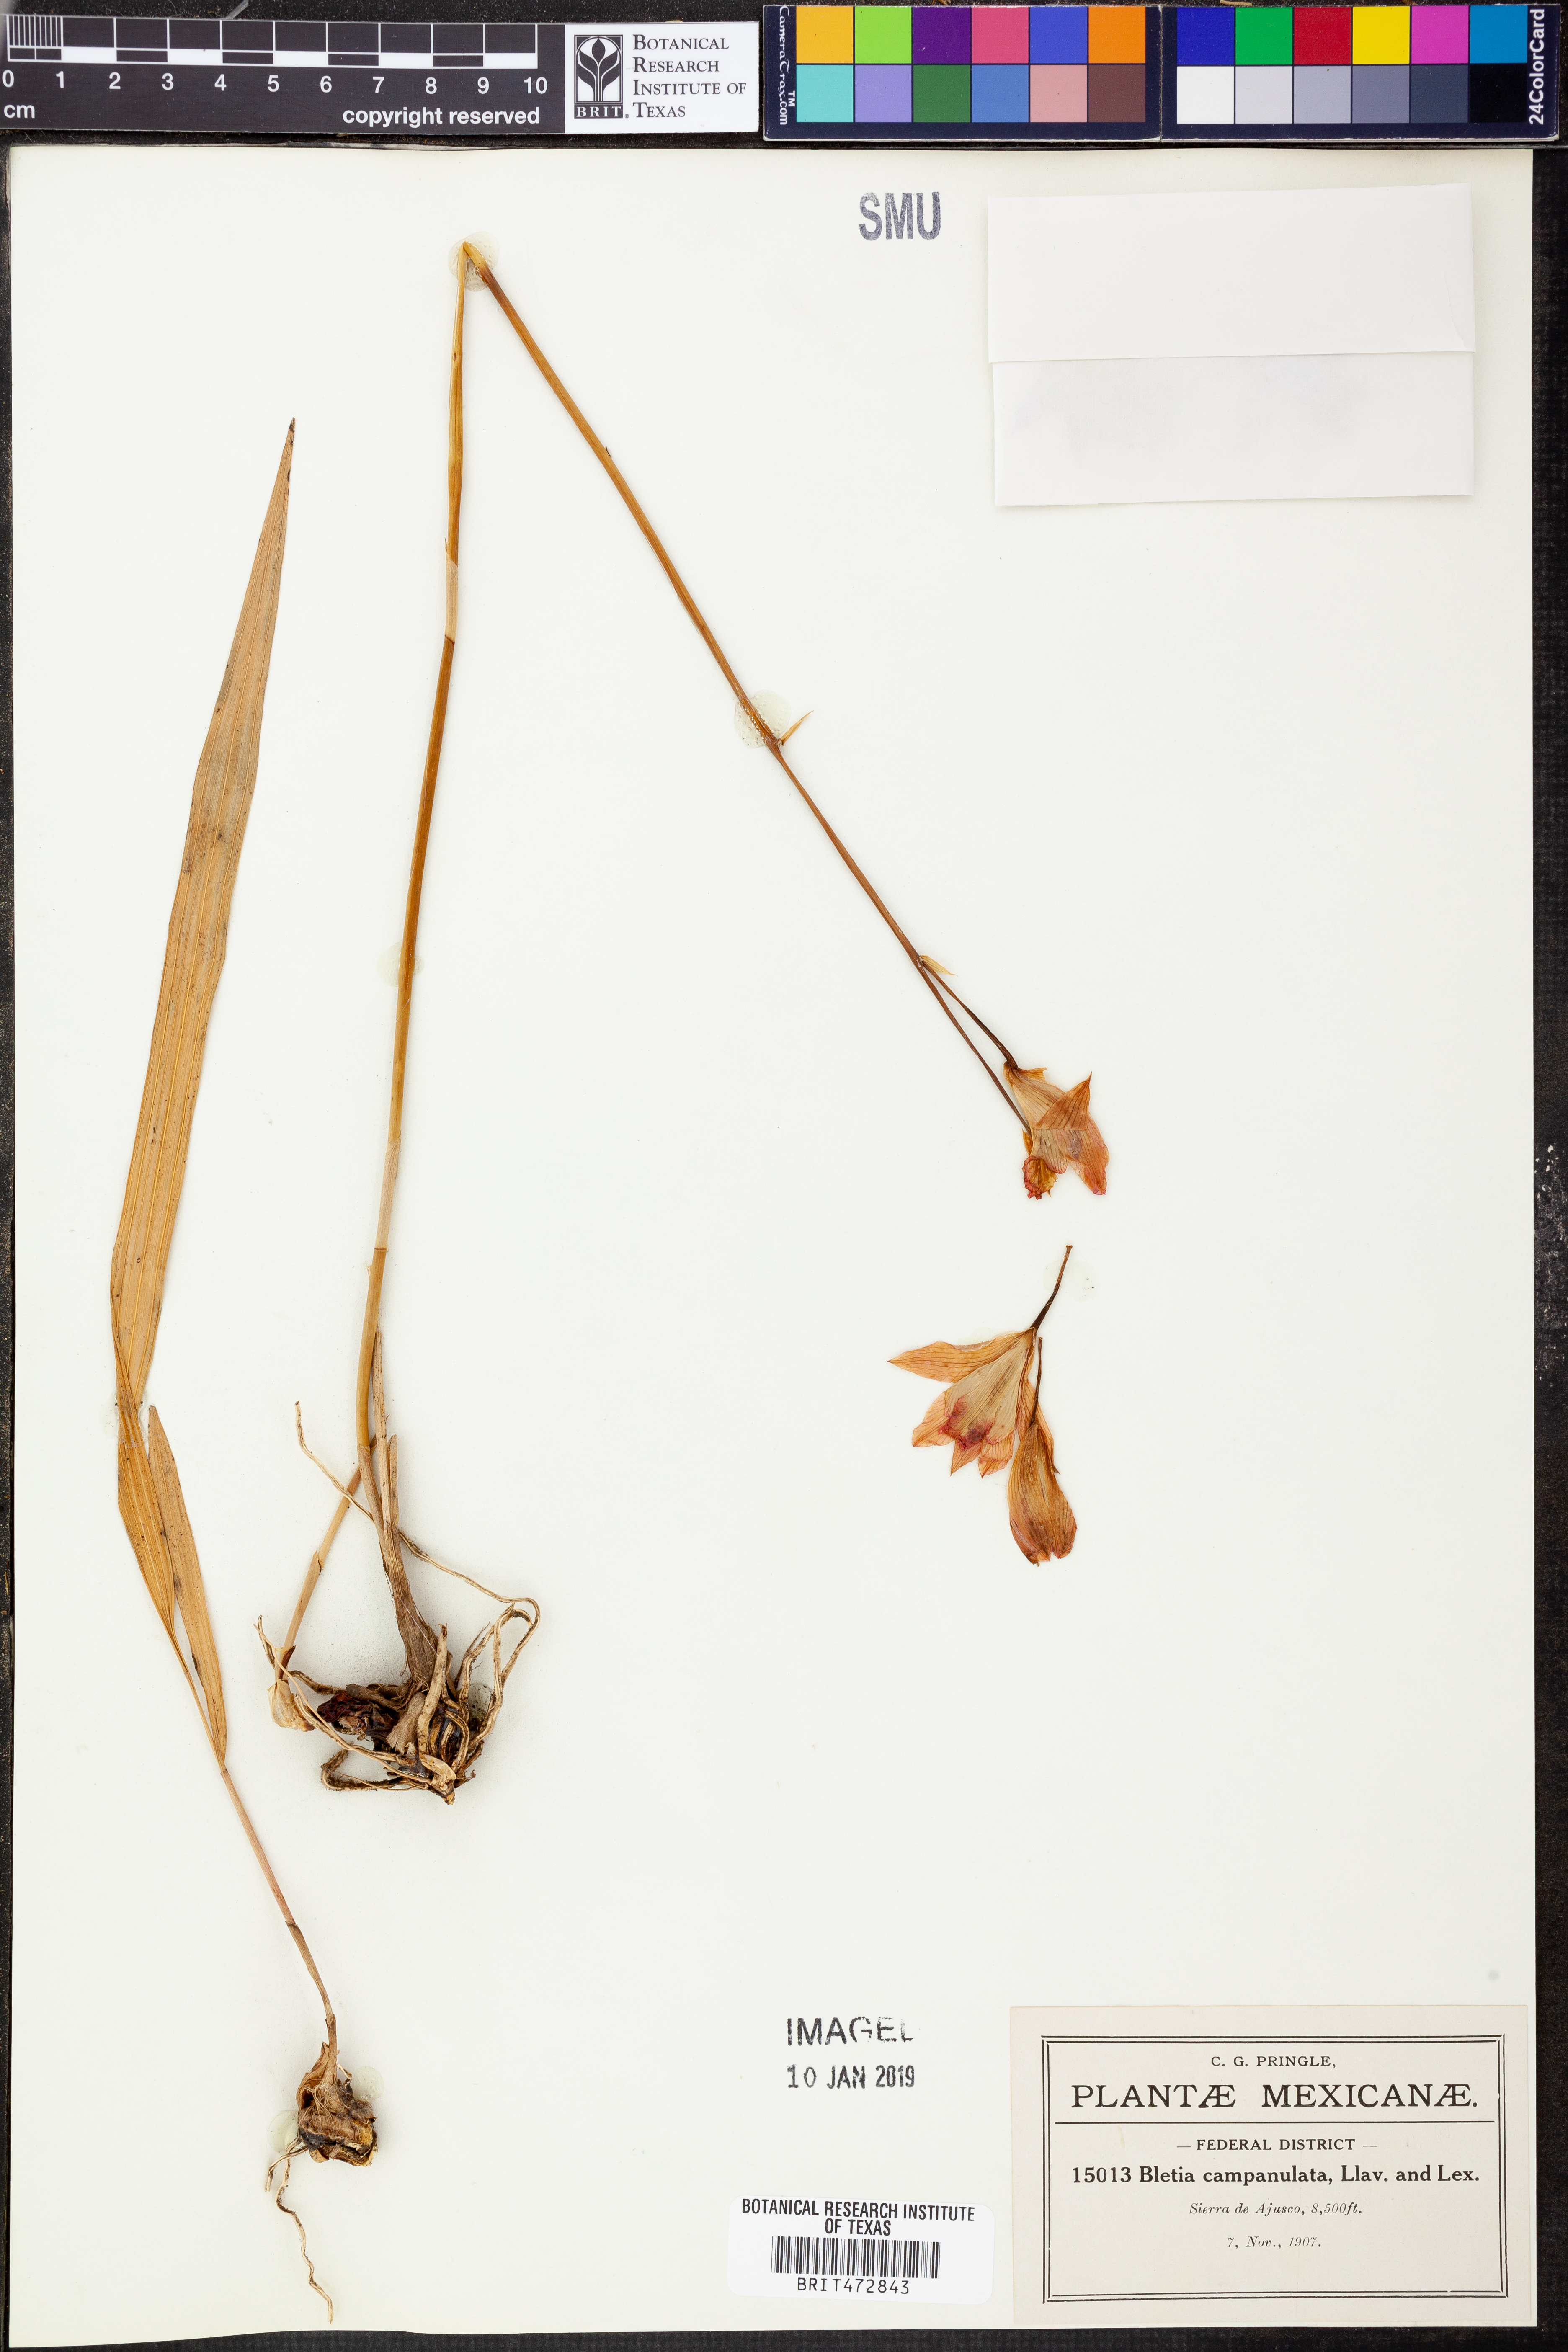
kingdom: Plantae
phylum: Tracheophyta
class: Liliopsida
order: Asparagales
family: Orchidaceae
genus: Bletia
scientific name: Bletia campanulata
